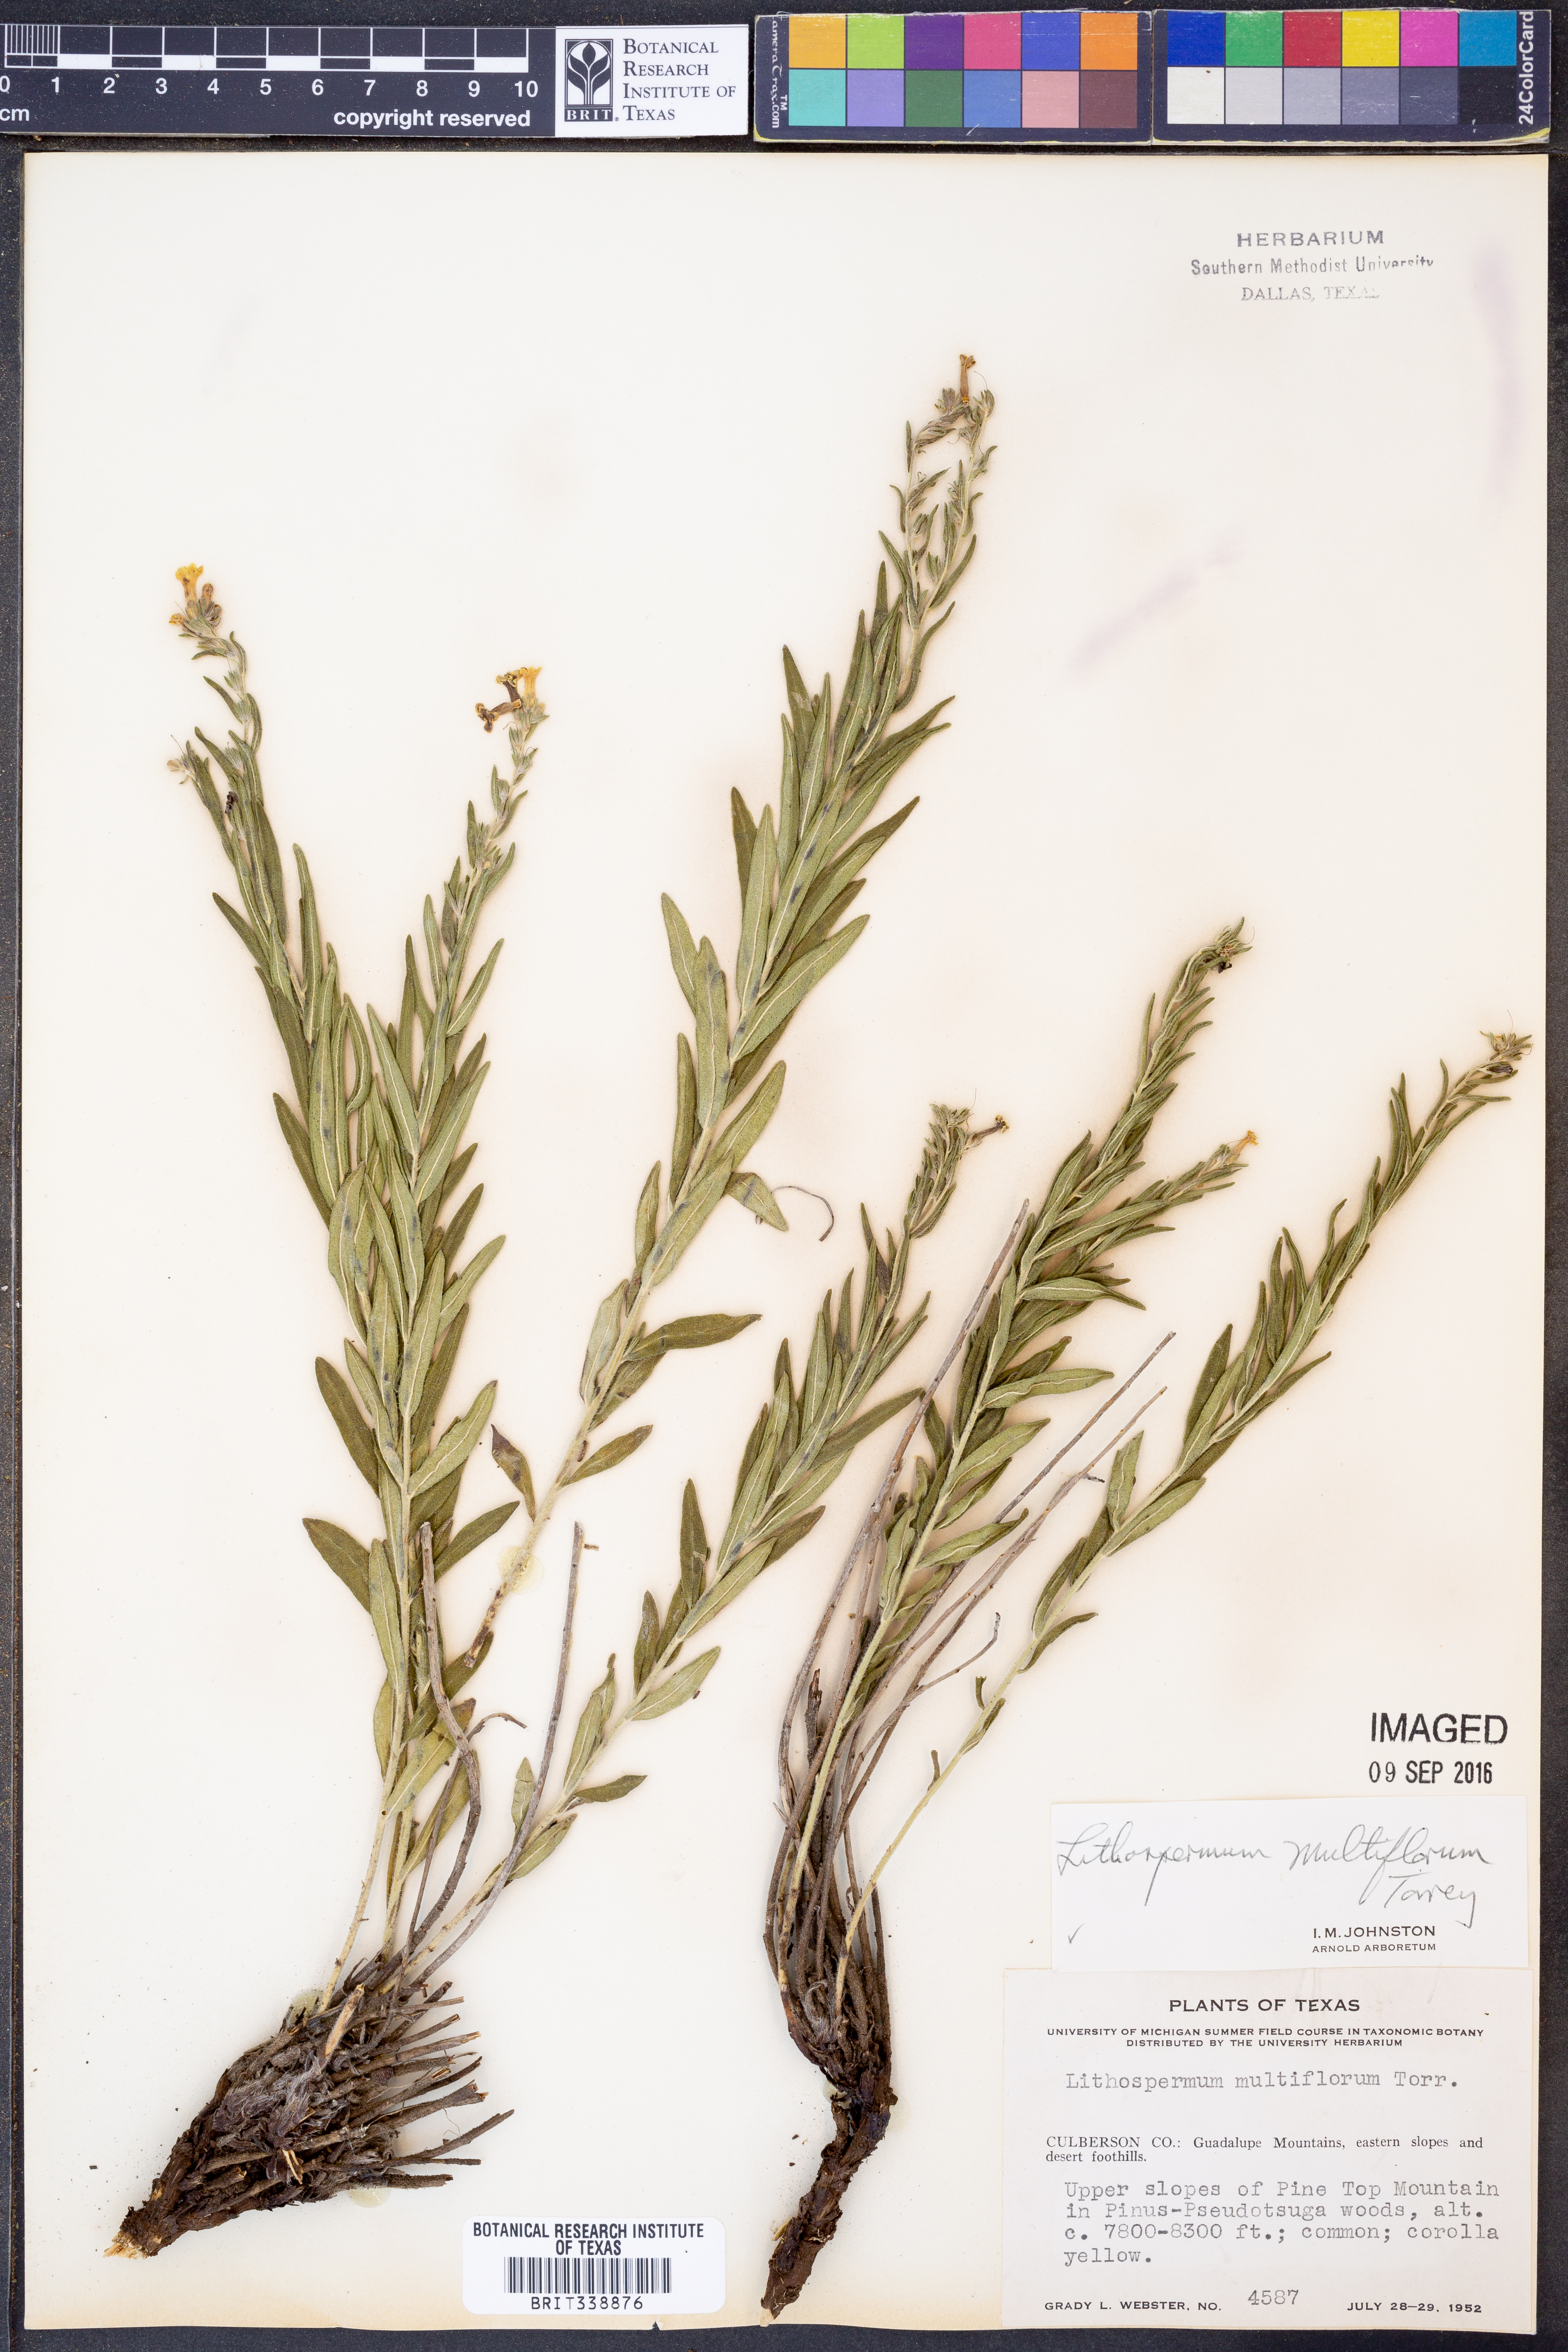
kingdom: Plantae
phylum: Tracheophyta
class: Magnoliopsida
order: Boraginales
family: Boraginaceae
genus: Lithospermum
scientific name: Lithospermum multiflorum
